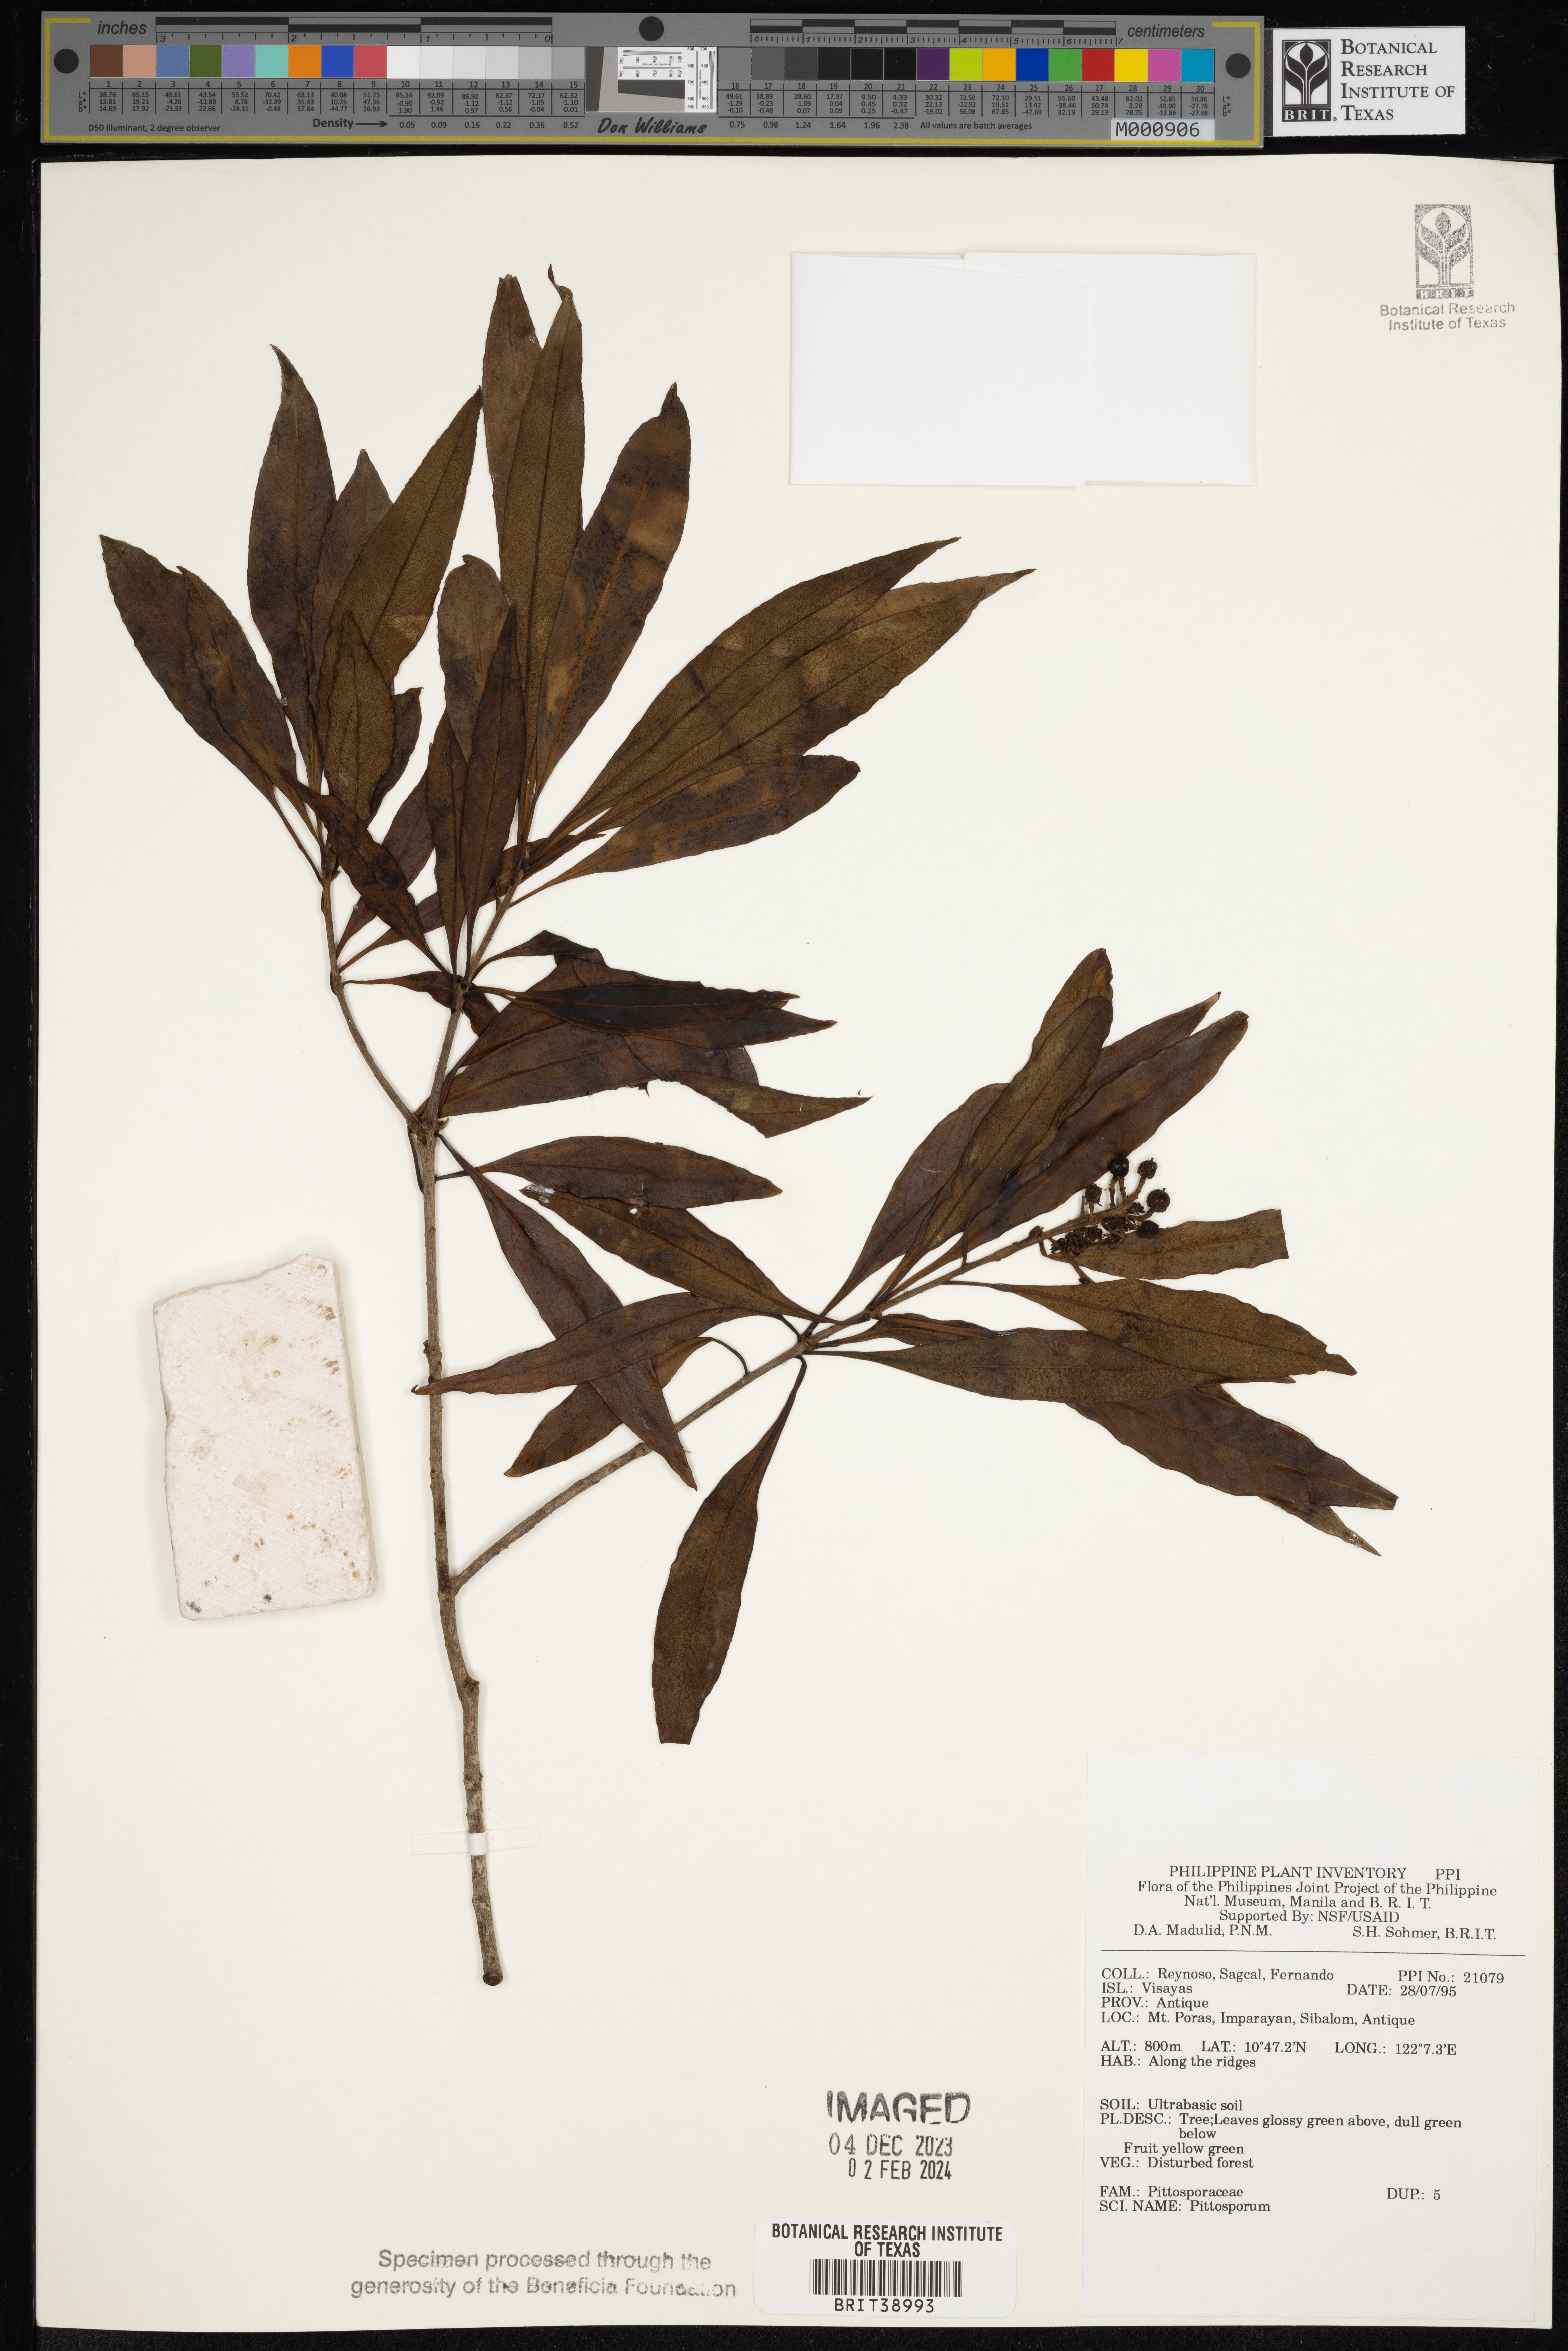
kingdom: Plantae
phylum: Tracheophyta
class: Magnoliopsida
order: Apiales
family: Pittosporaceae
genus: Pittosporum
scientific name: Pittosporum
